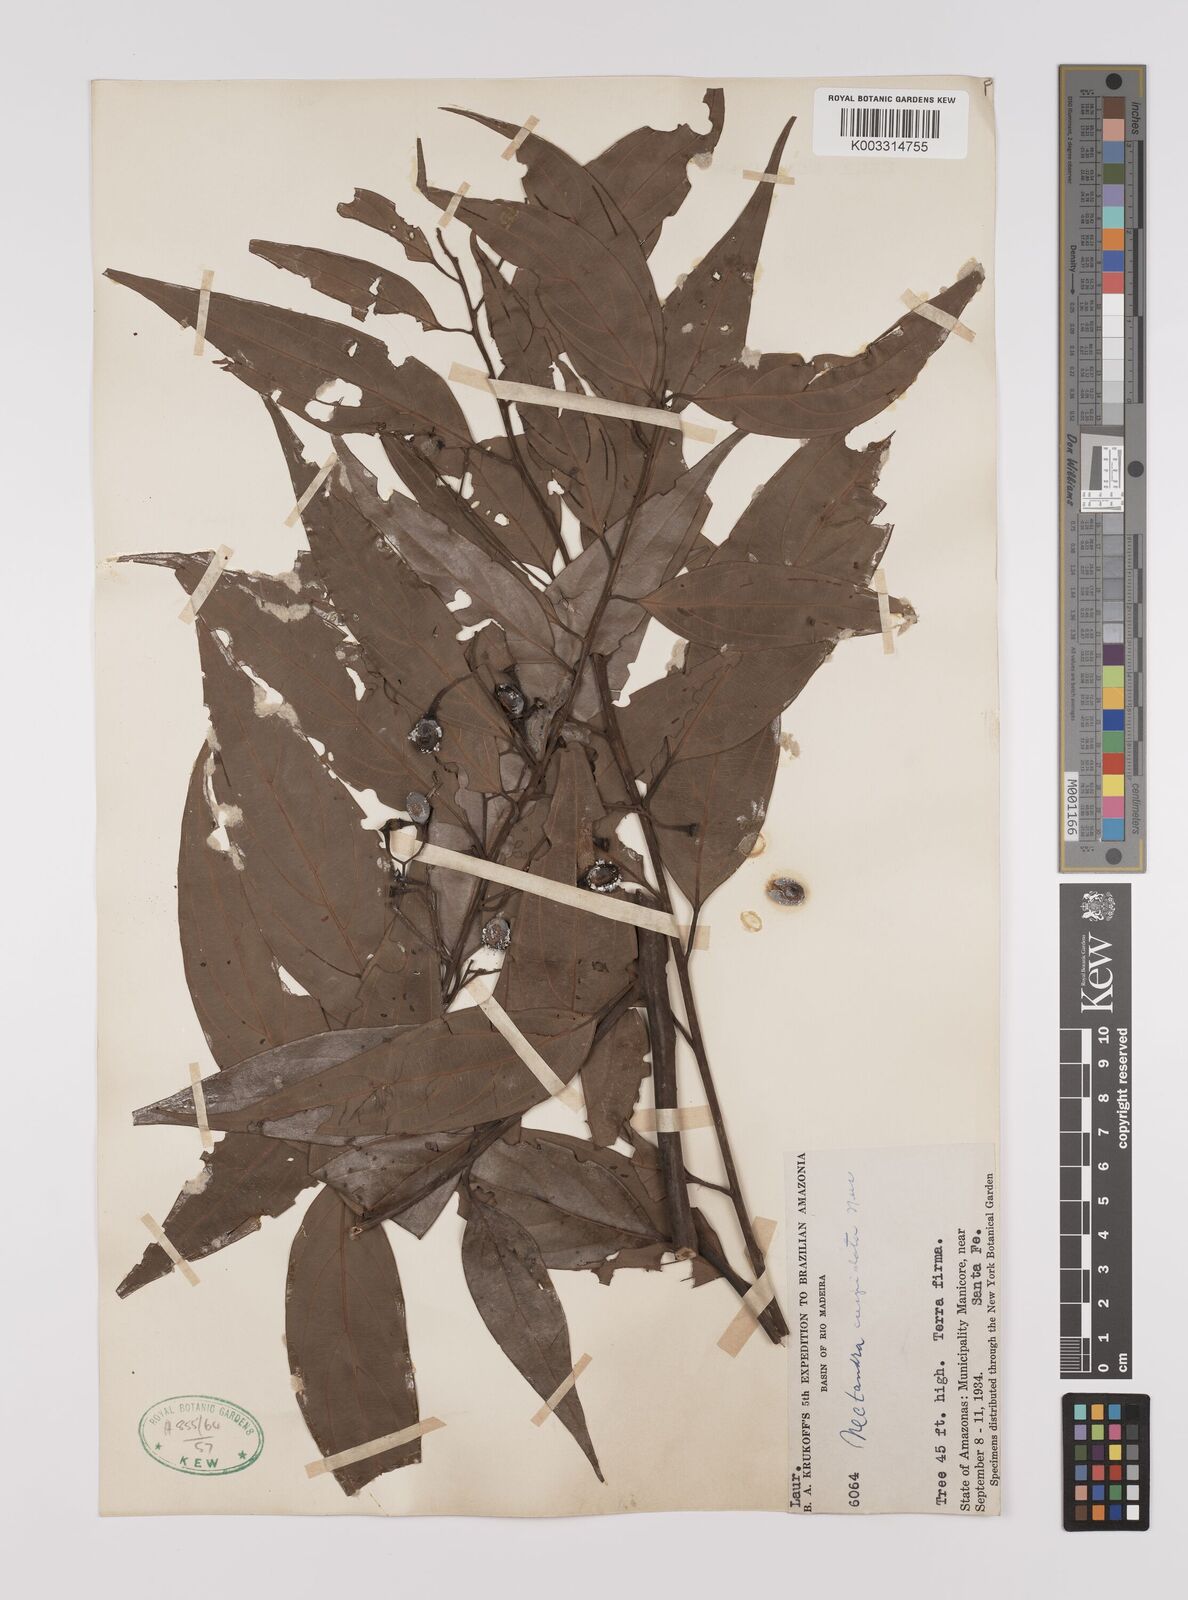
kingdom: Plantae
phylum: Tracheophyta
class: Magnoliopsida
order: Laurales
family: Lauraceae
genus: Nectandra
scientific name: Nectandra cuspidata
